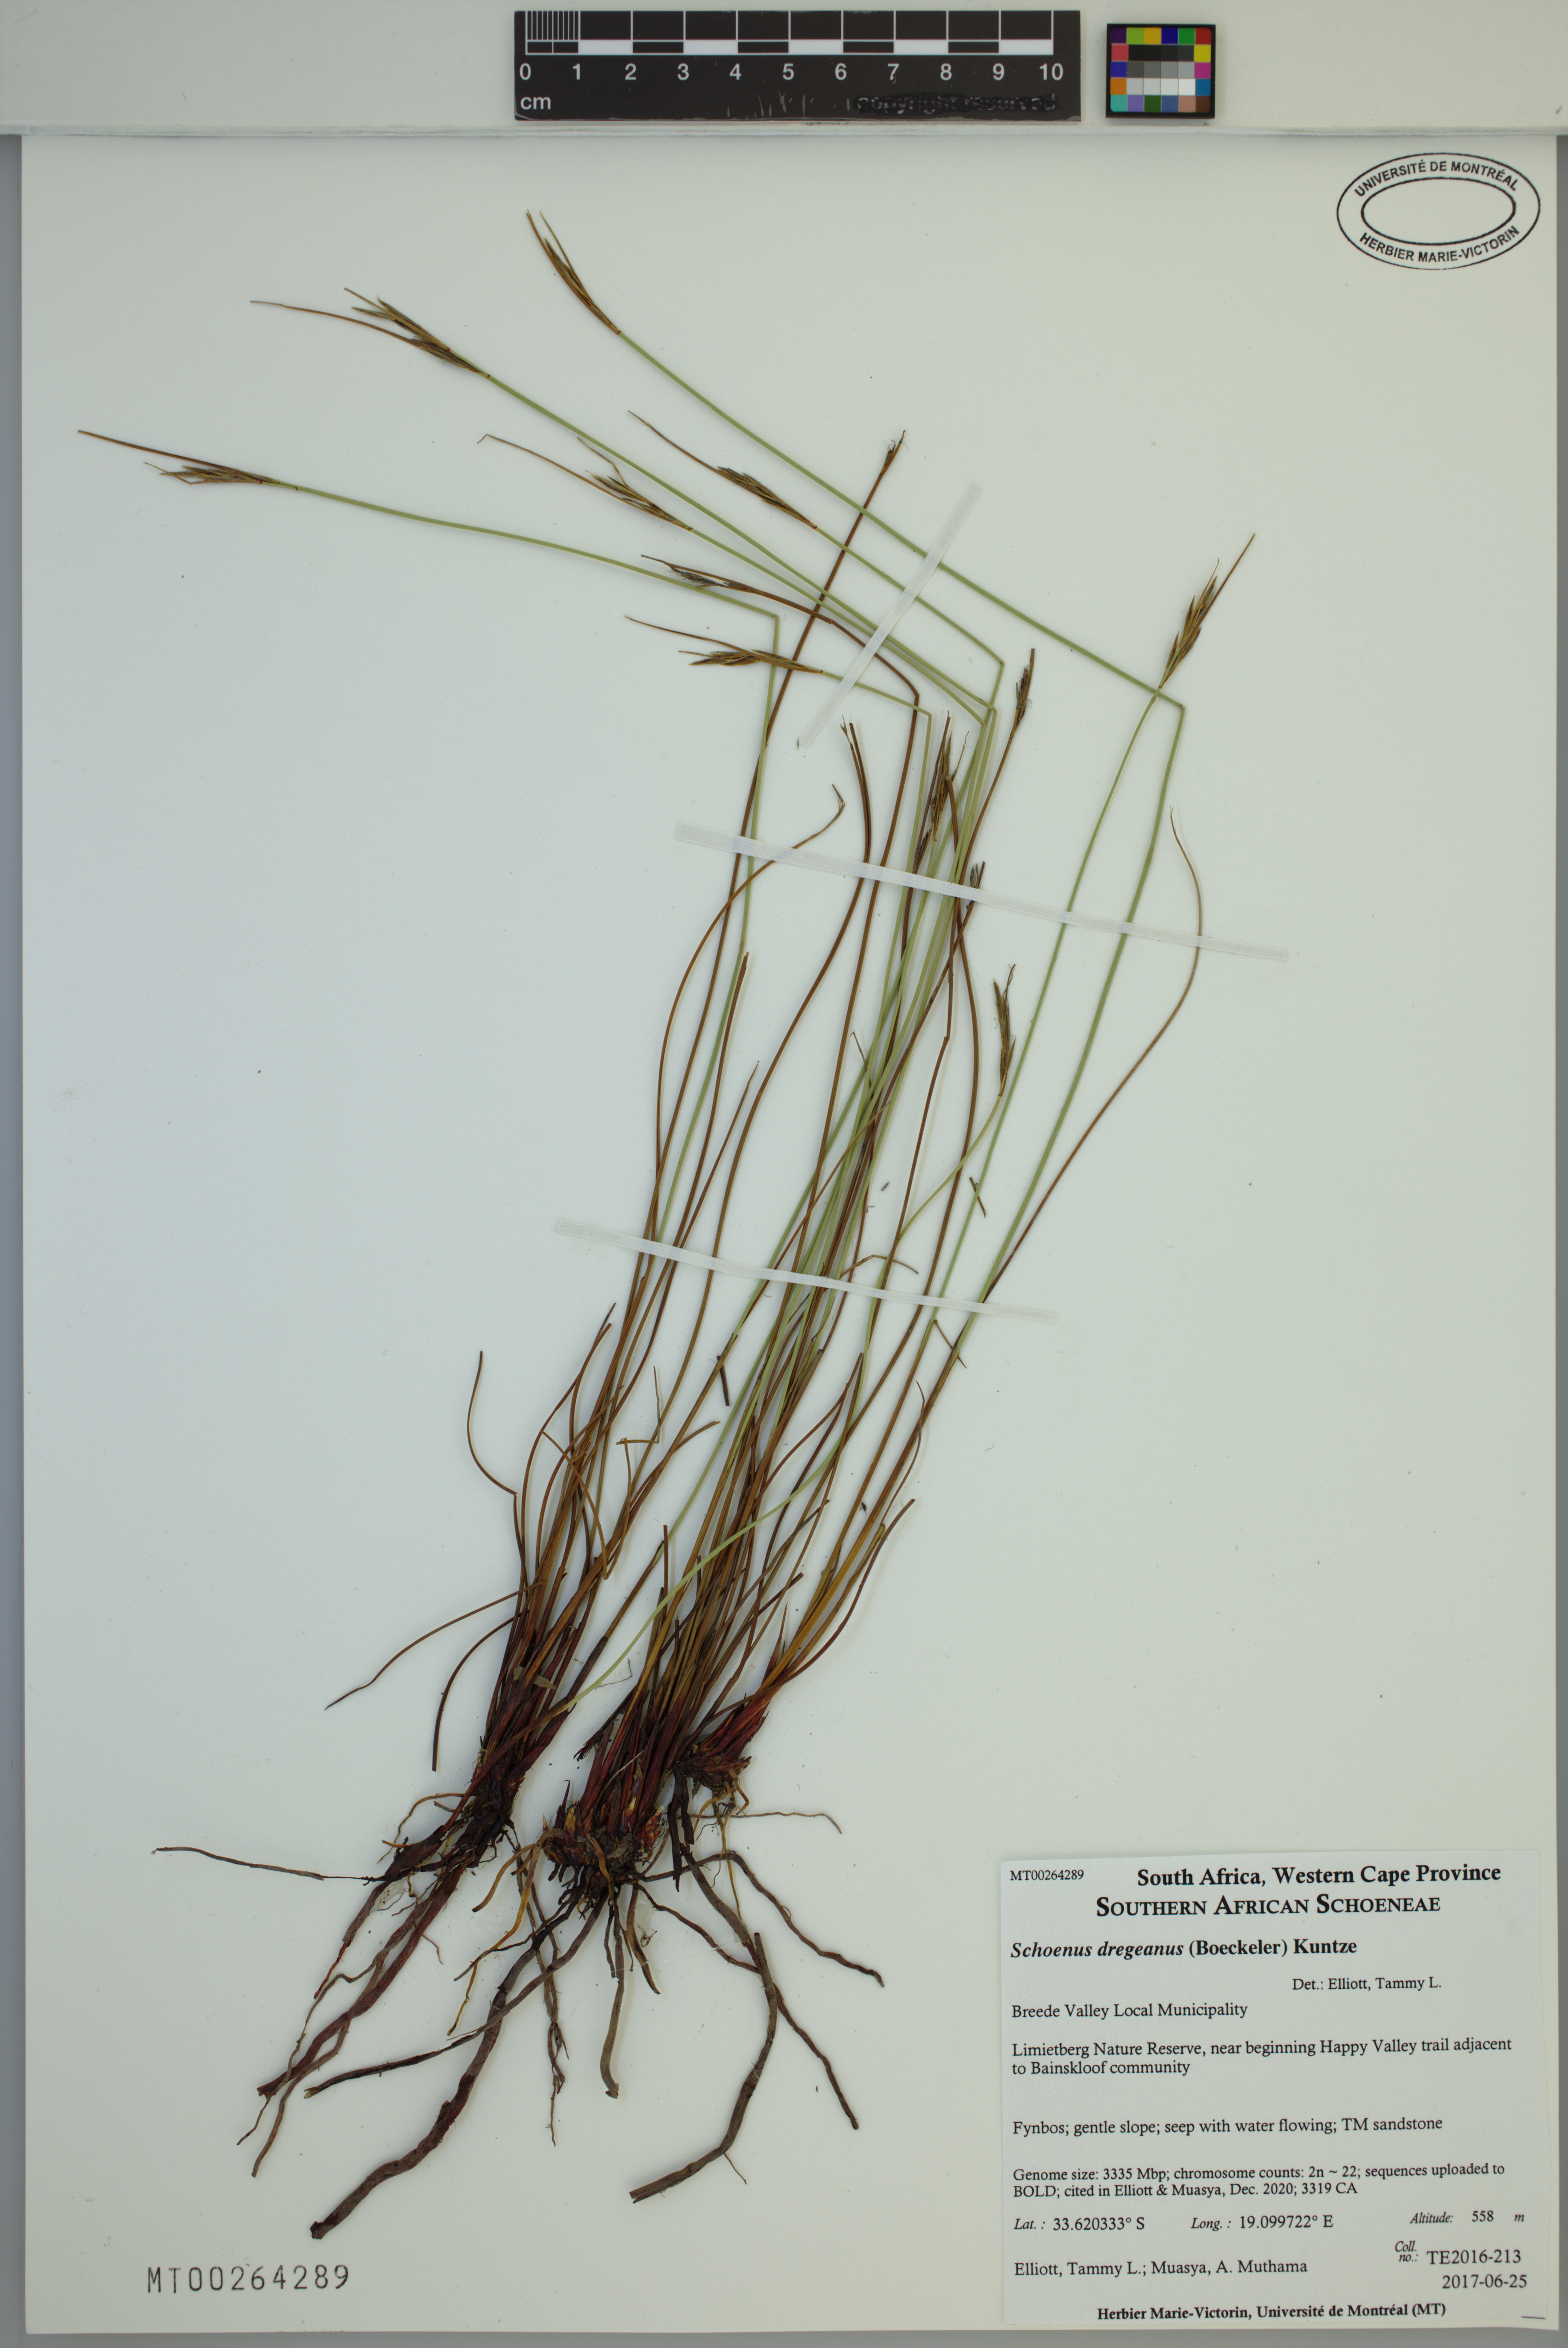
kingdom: Plantae
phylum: Tracheophyta
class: Liliopsida
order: Poales
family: Cyperaceae
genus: Schoenus
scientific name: Schoenus dregeanus
